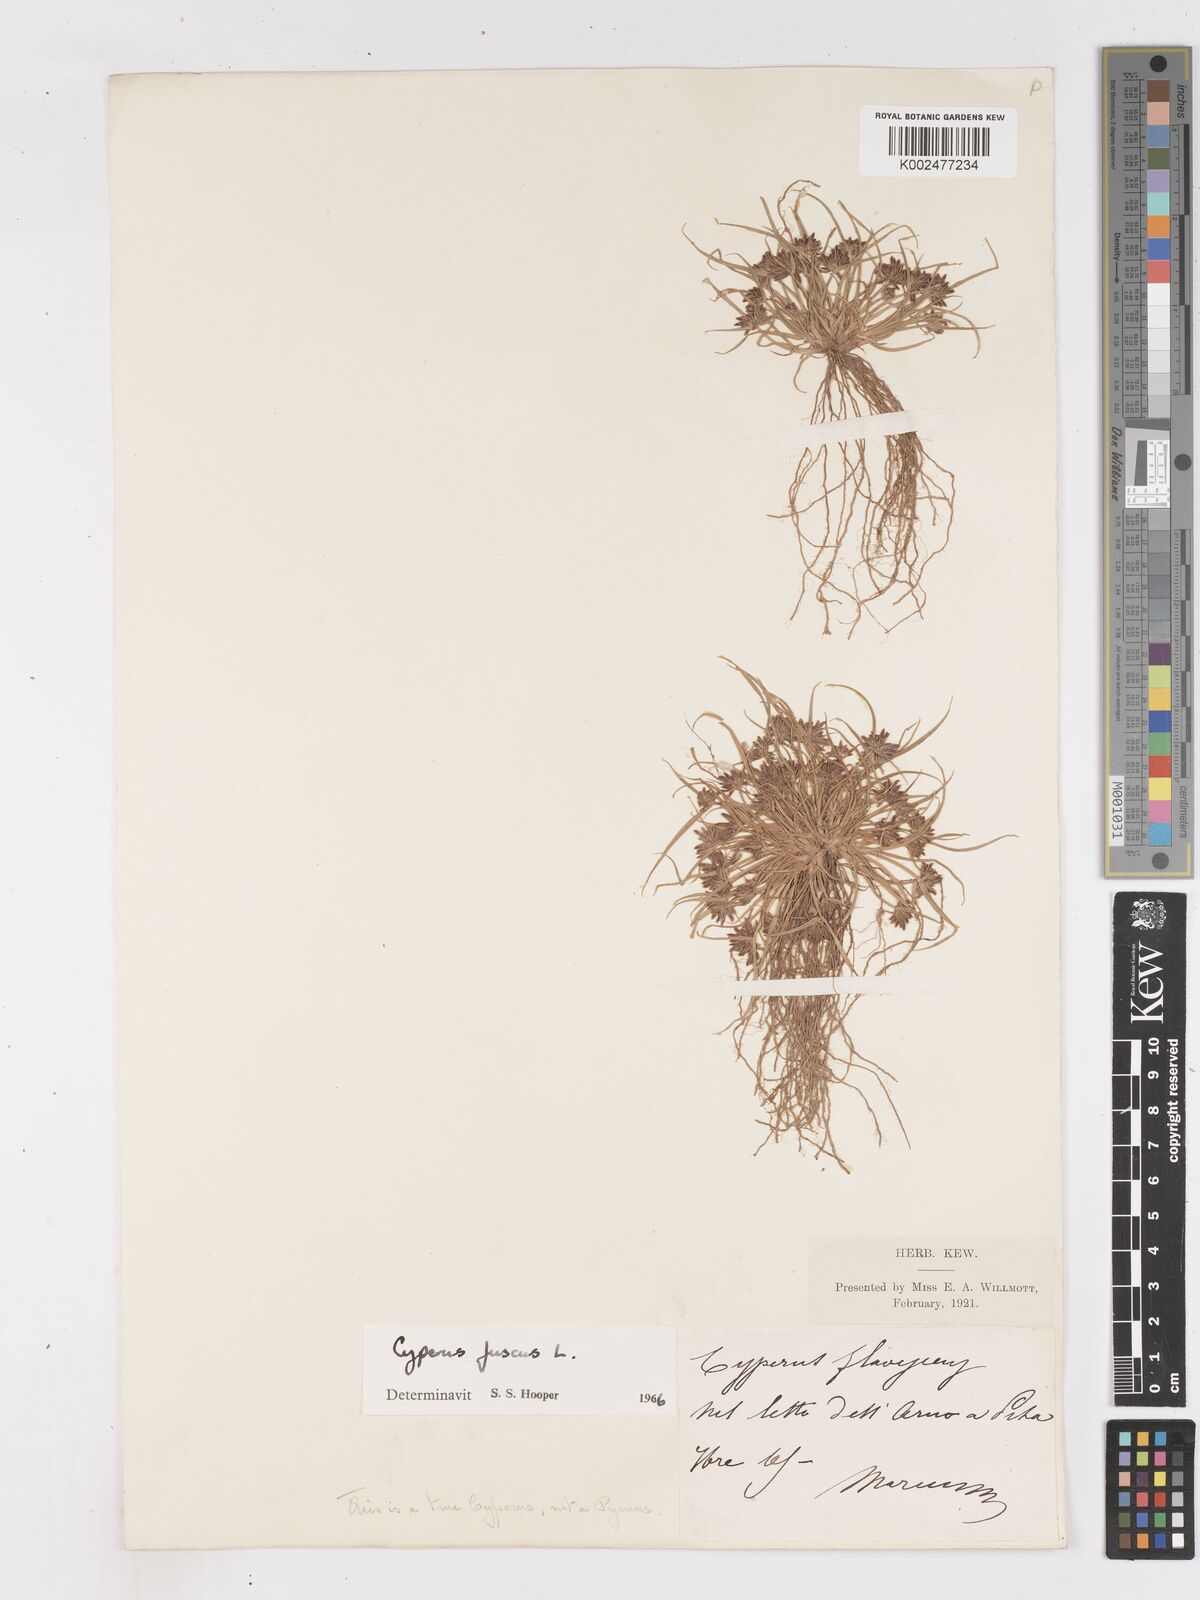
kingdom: Plantae
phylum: Tracheophyta
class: Liliopsida
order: Poales
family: Cyperaceae
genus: Cyperus
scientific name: Cyperus fuscus
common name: Brown galingale
